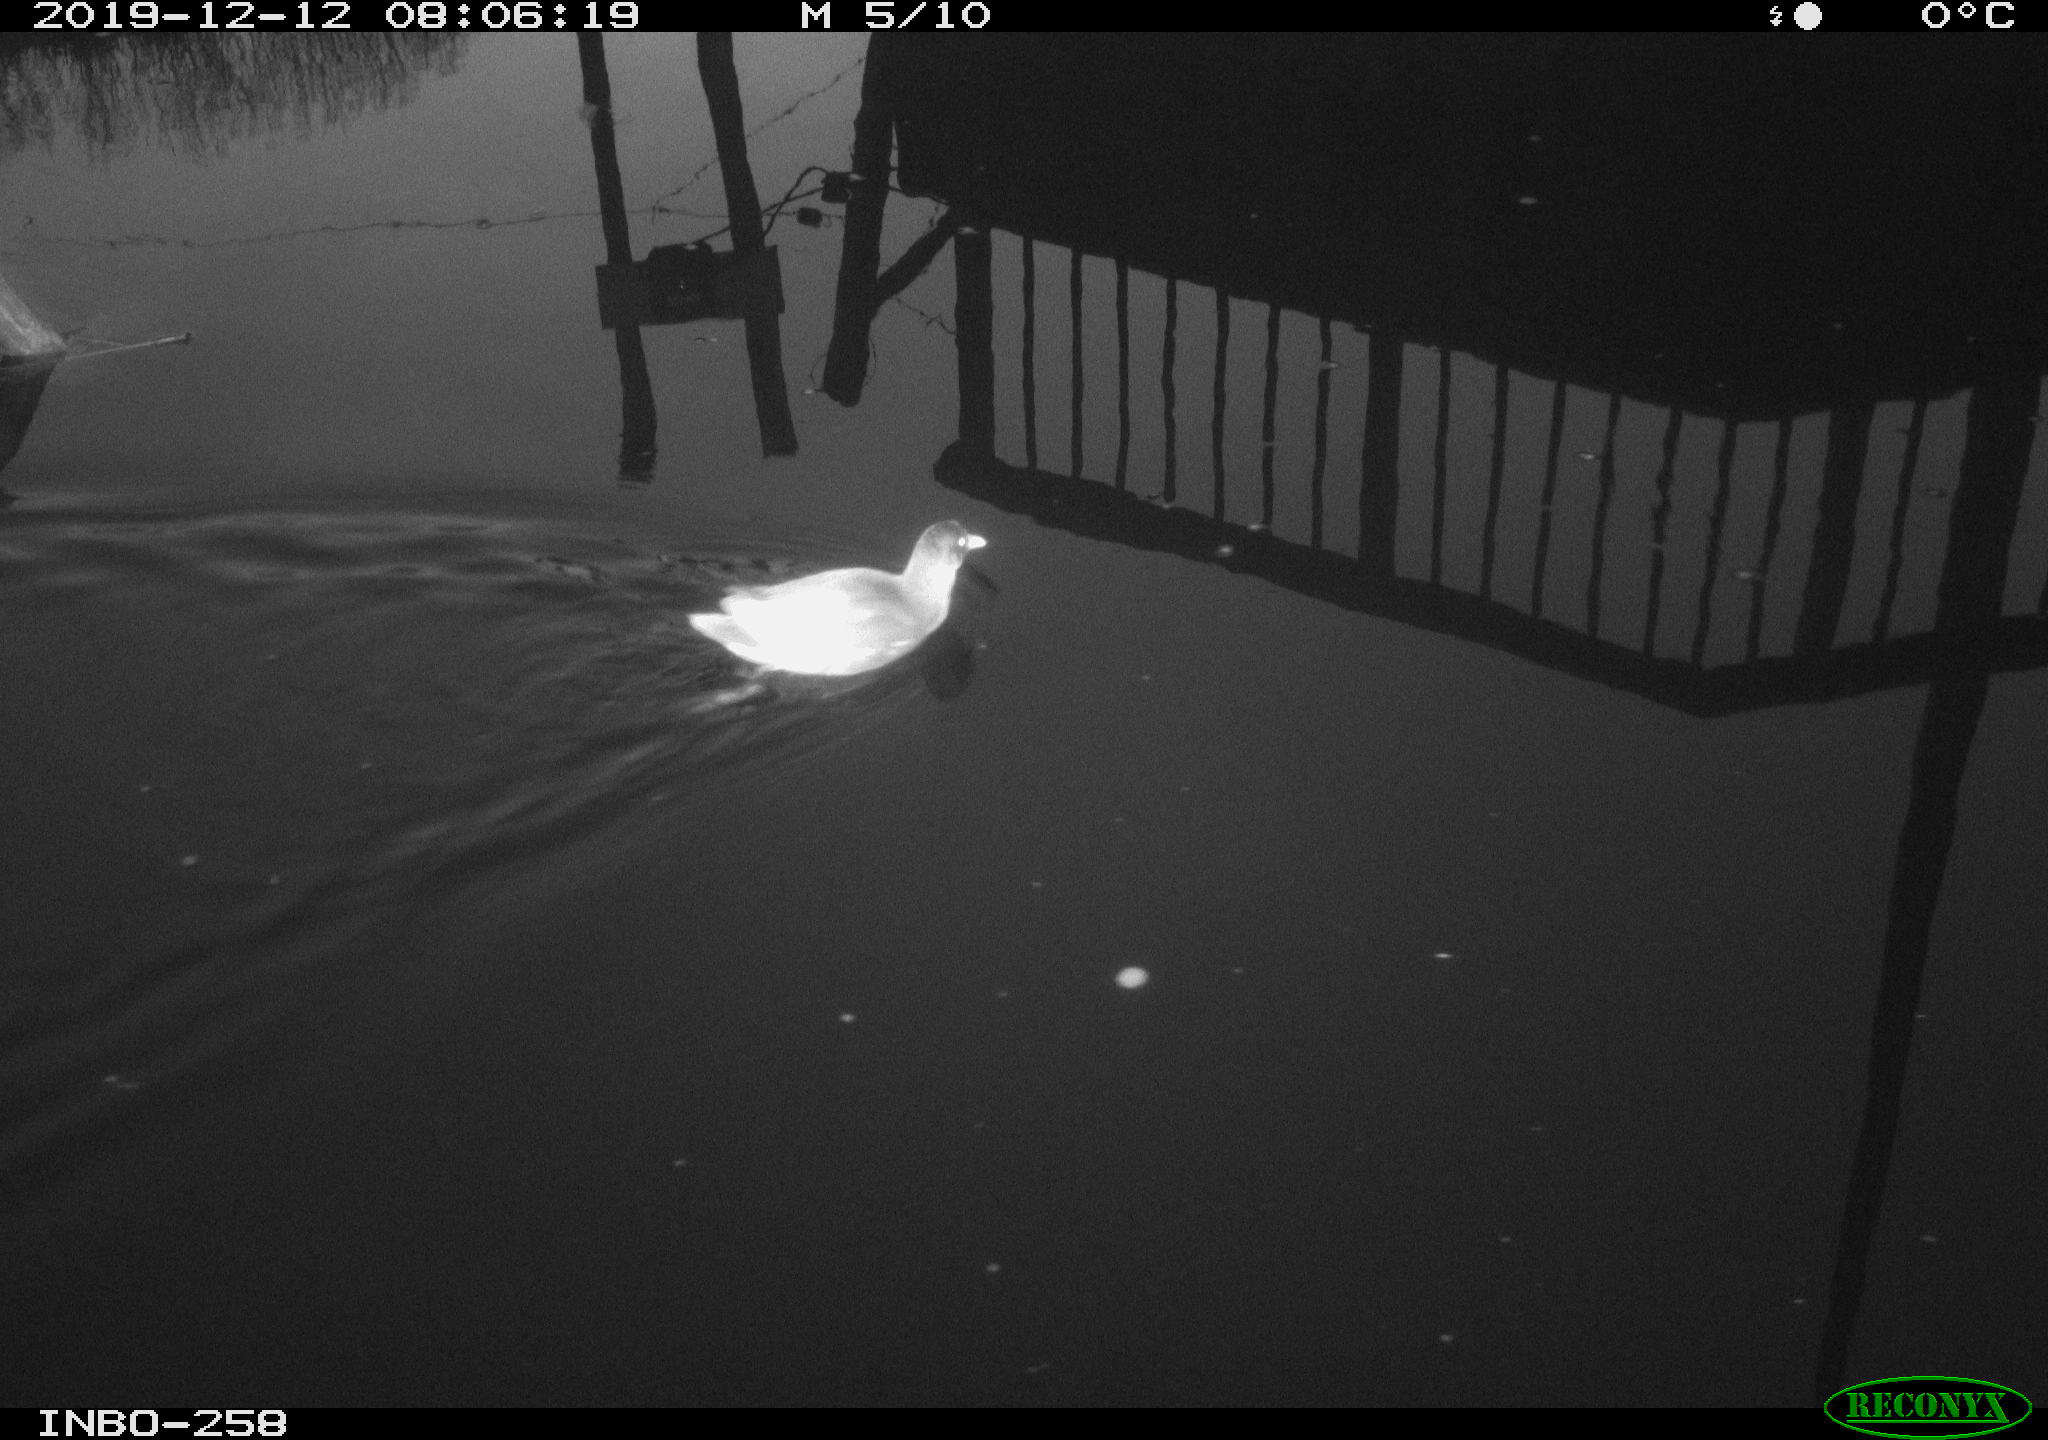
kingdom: Animalia
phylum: Chordata
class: Aves
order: Gruiformes
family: Rallidae
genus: Gallinula
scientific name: Gallinula chloropus
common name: Common moorhen
